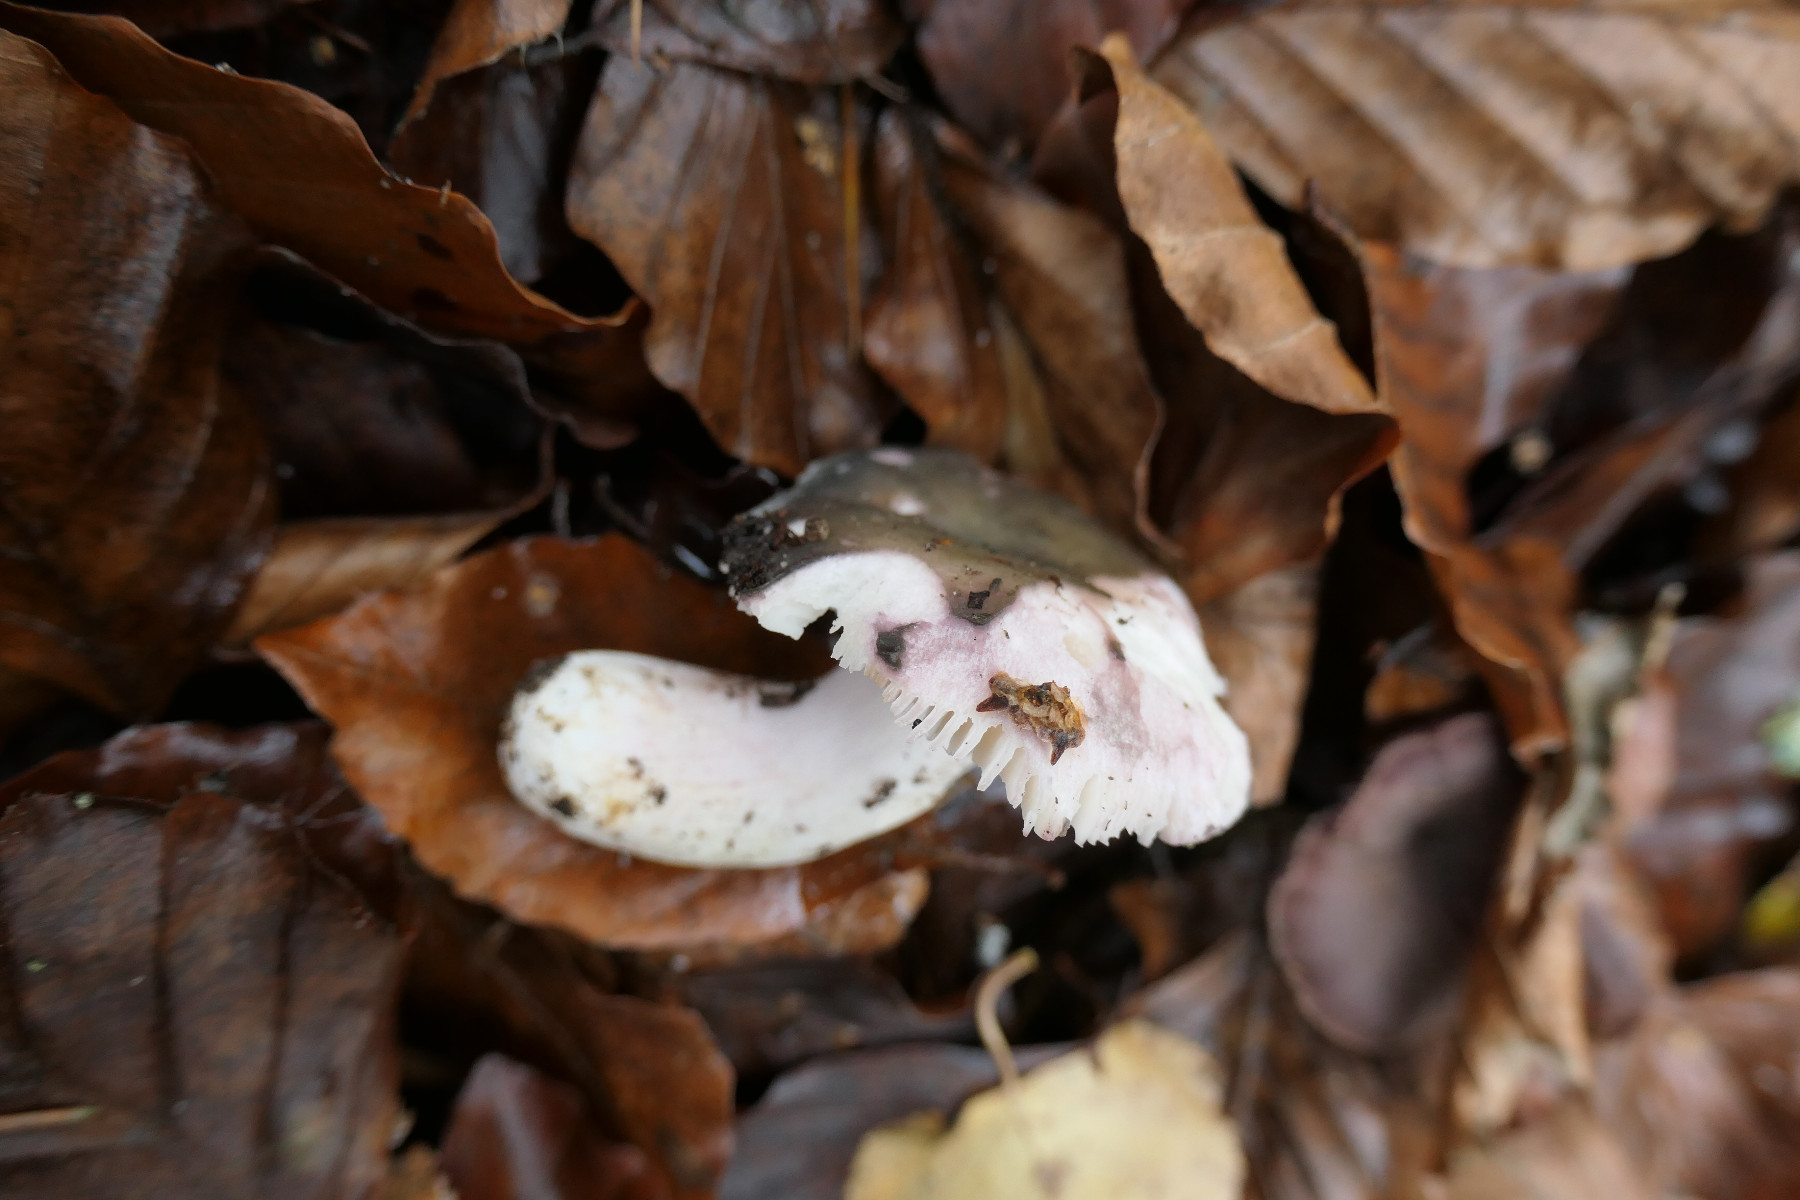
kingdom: Fungi
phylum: Basidiomycota
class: Agaricomycetes
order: Russulales
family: Russulaceae
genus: Russula
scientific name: Russula ionochlora
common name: violetgrøn skørhat
